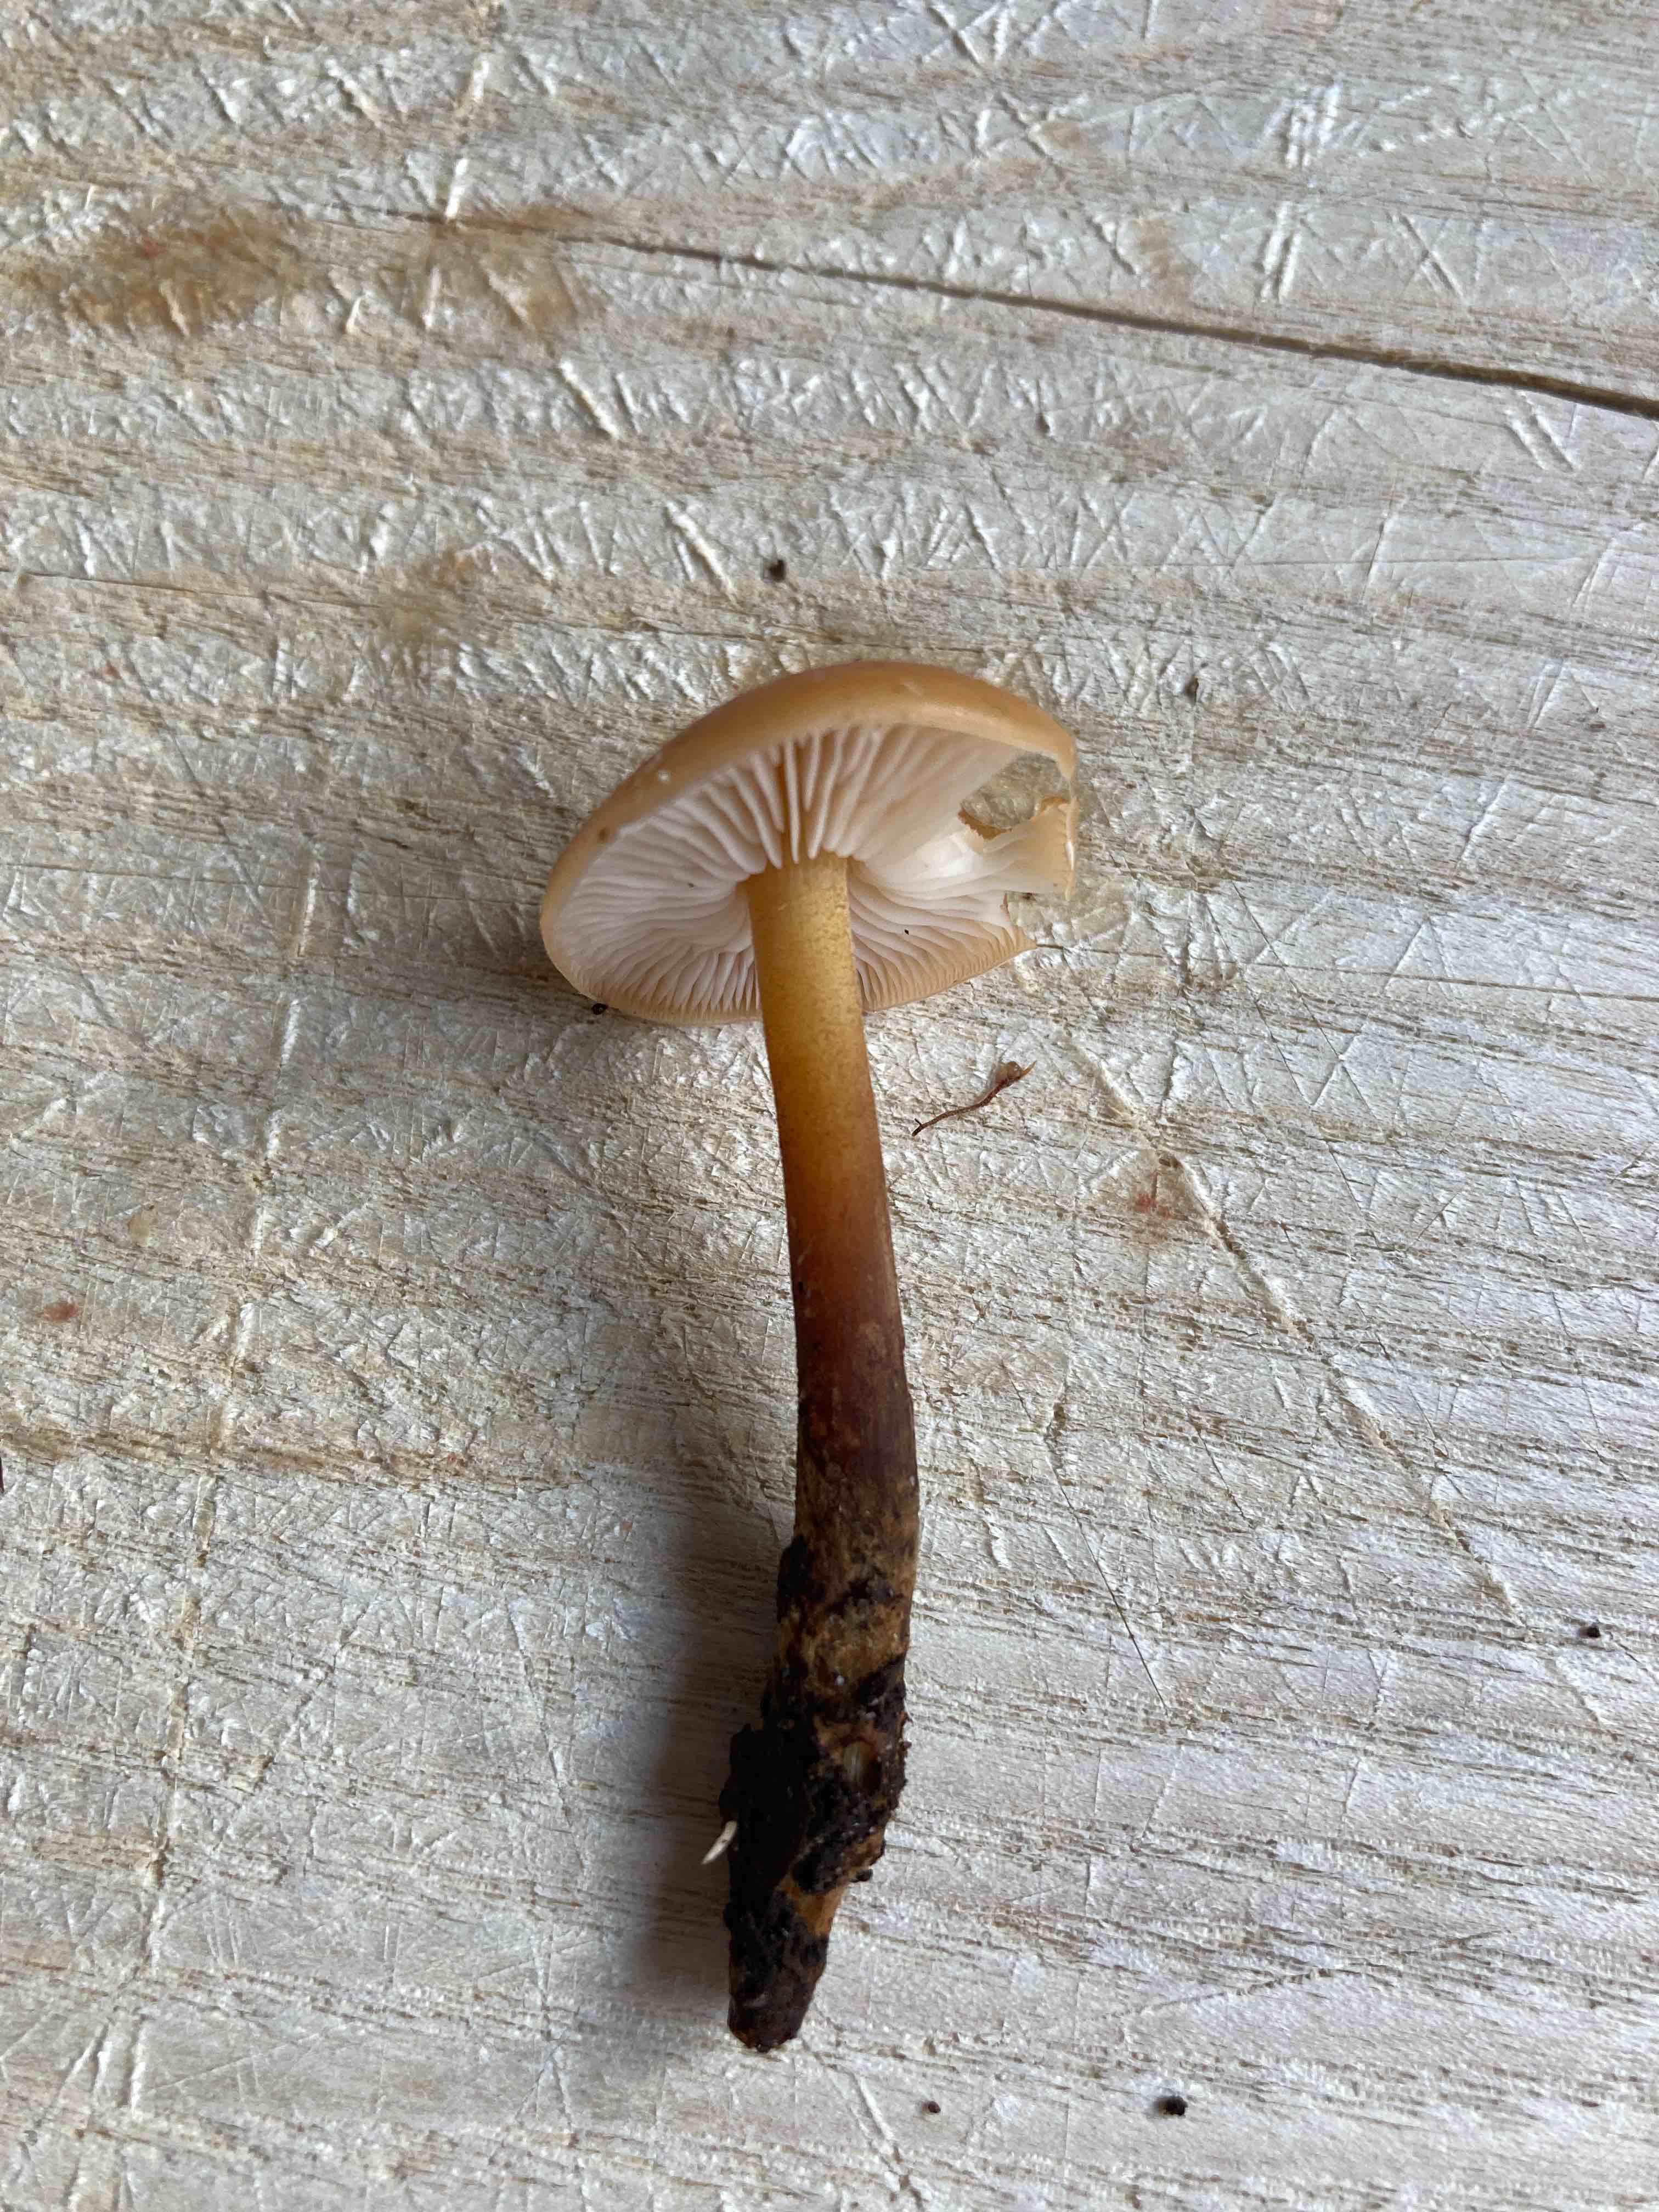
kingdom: Fungi
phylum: Basidiomycota
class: Agaricomycetes
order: Agaricales
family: Physalacriaceae
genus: Flammulina
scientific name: Flammulina velutipes
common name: gul fløjlsfod
